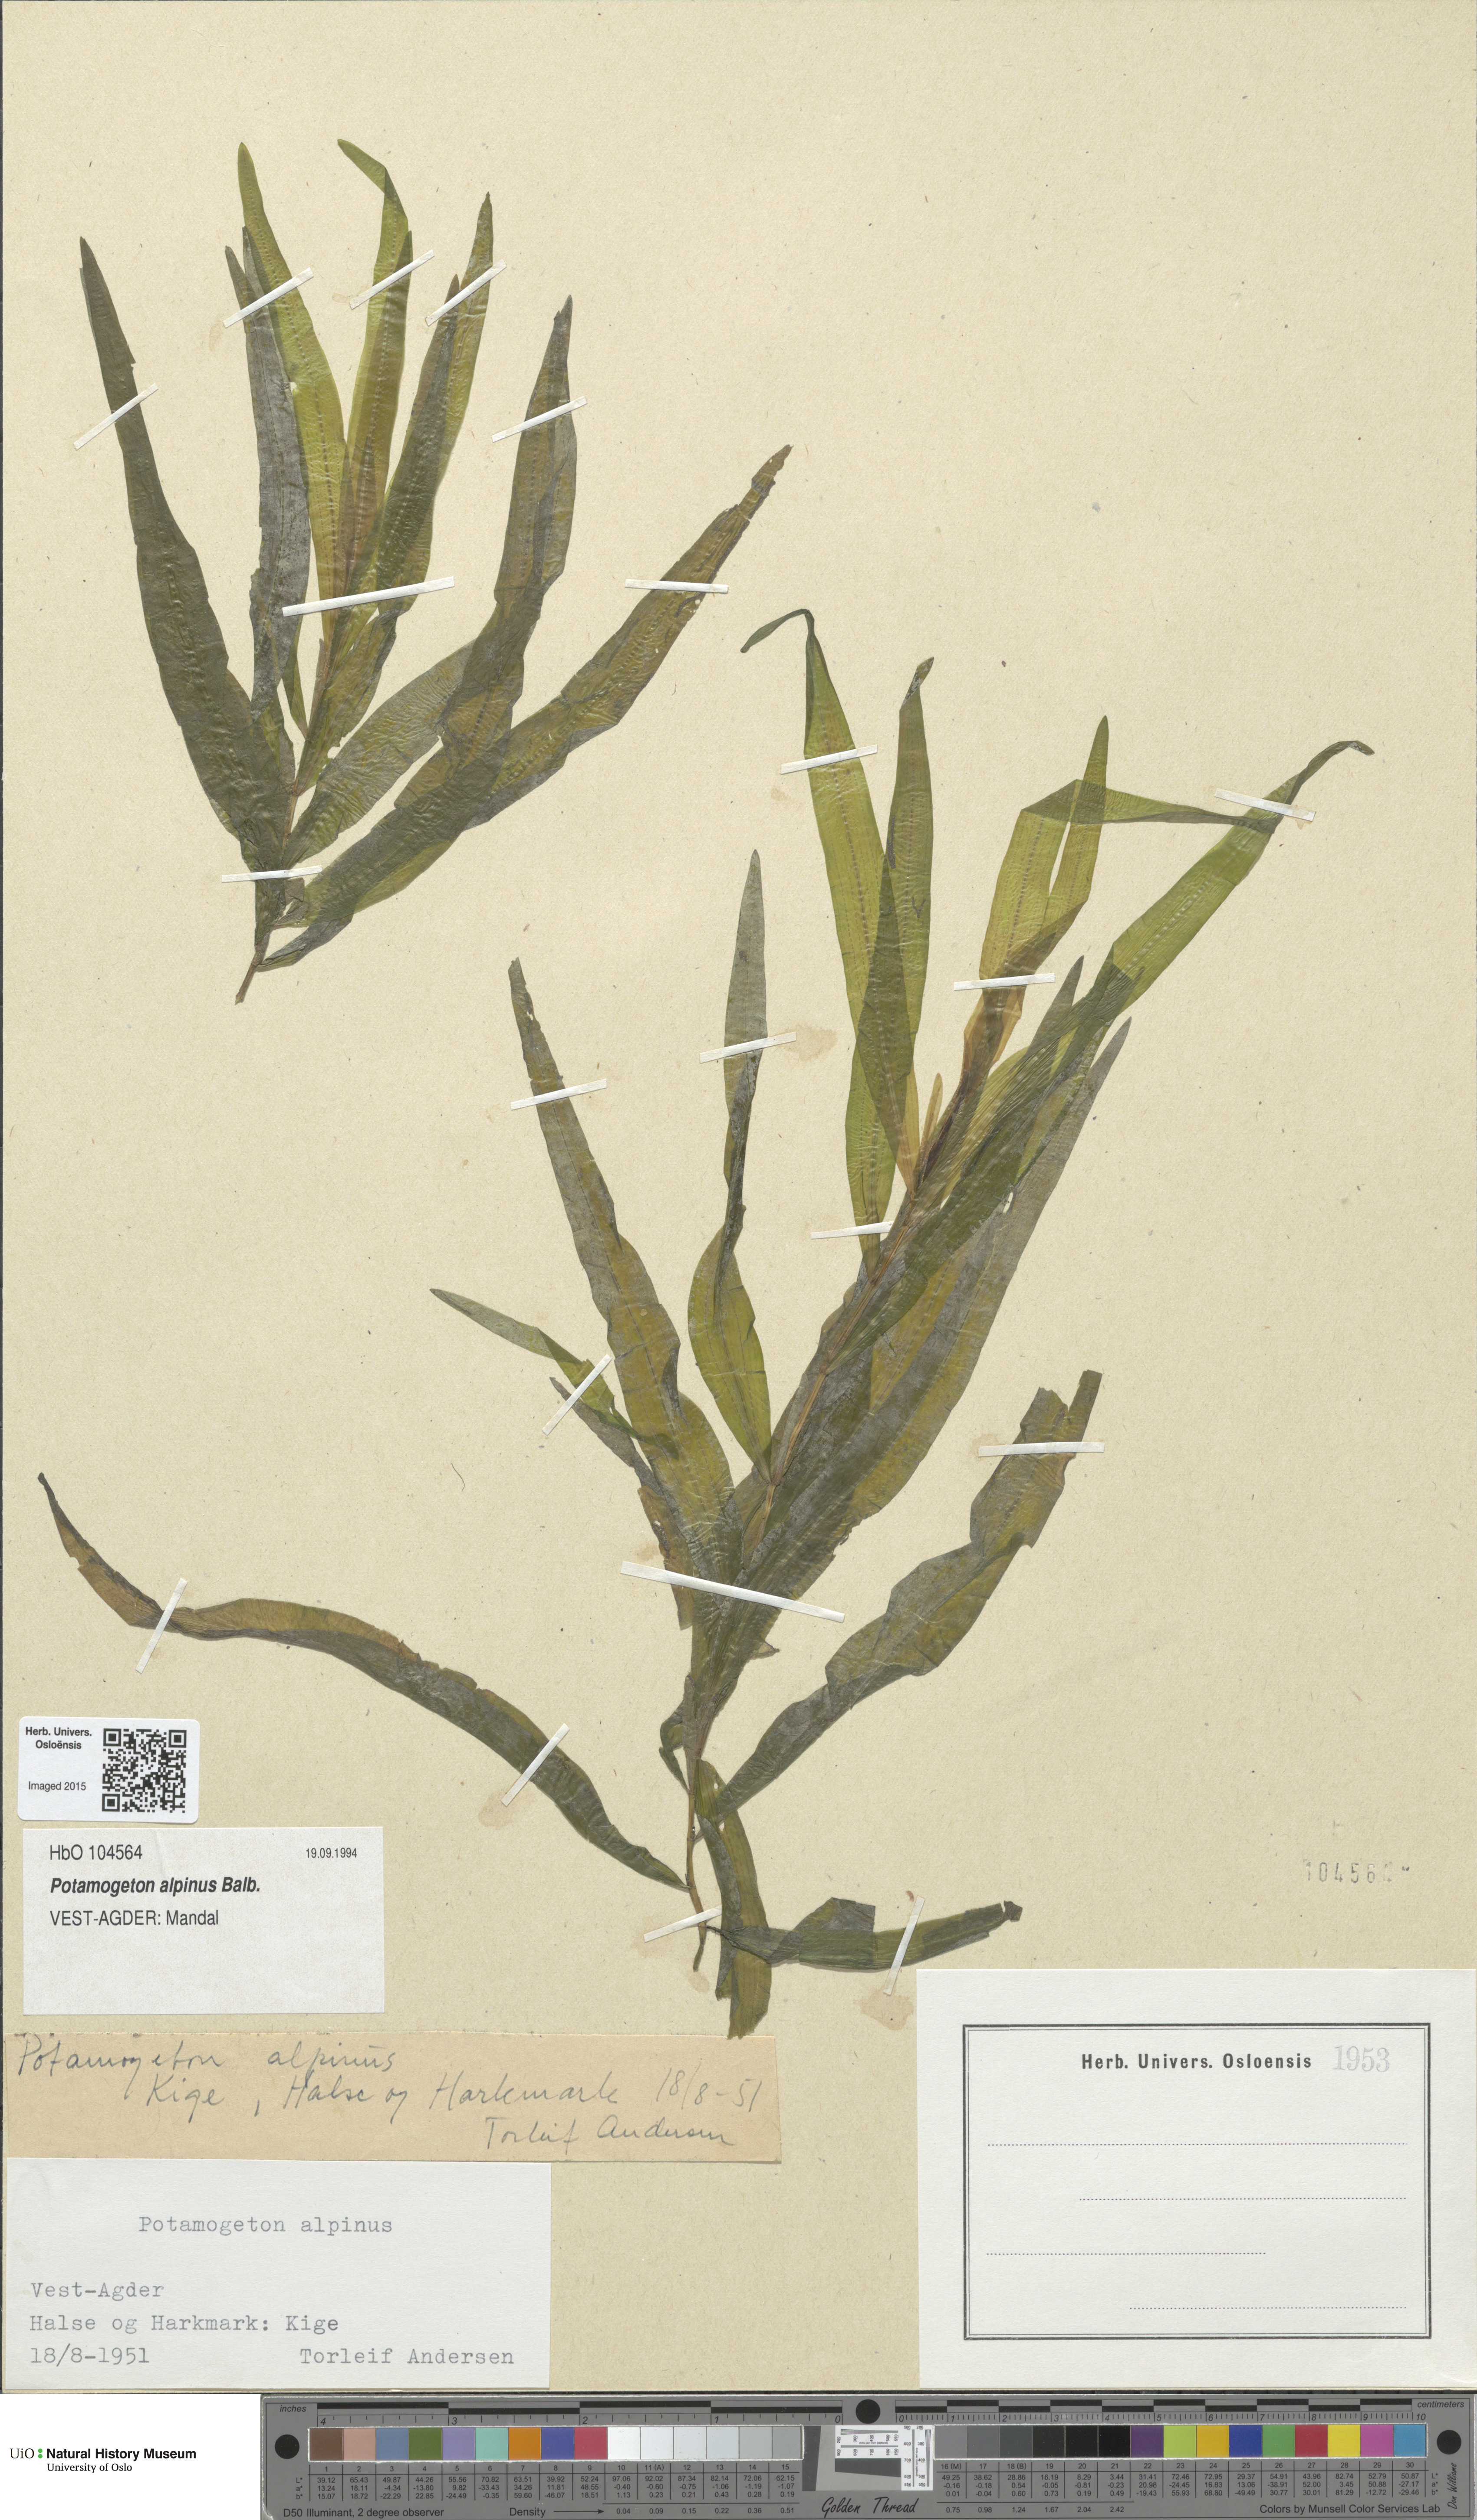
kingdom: Plantae
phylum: Tracheophyta
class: Liliopsida
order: Alismatales
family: Potamogetonaceae
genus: Potamogeton
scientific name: Potamogeton alpinus
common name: Red pondweed
